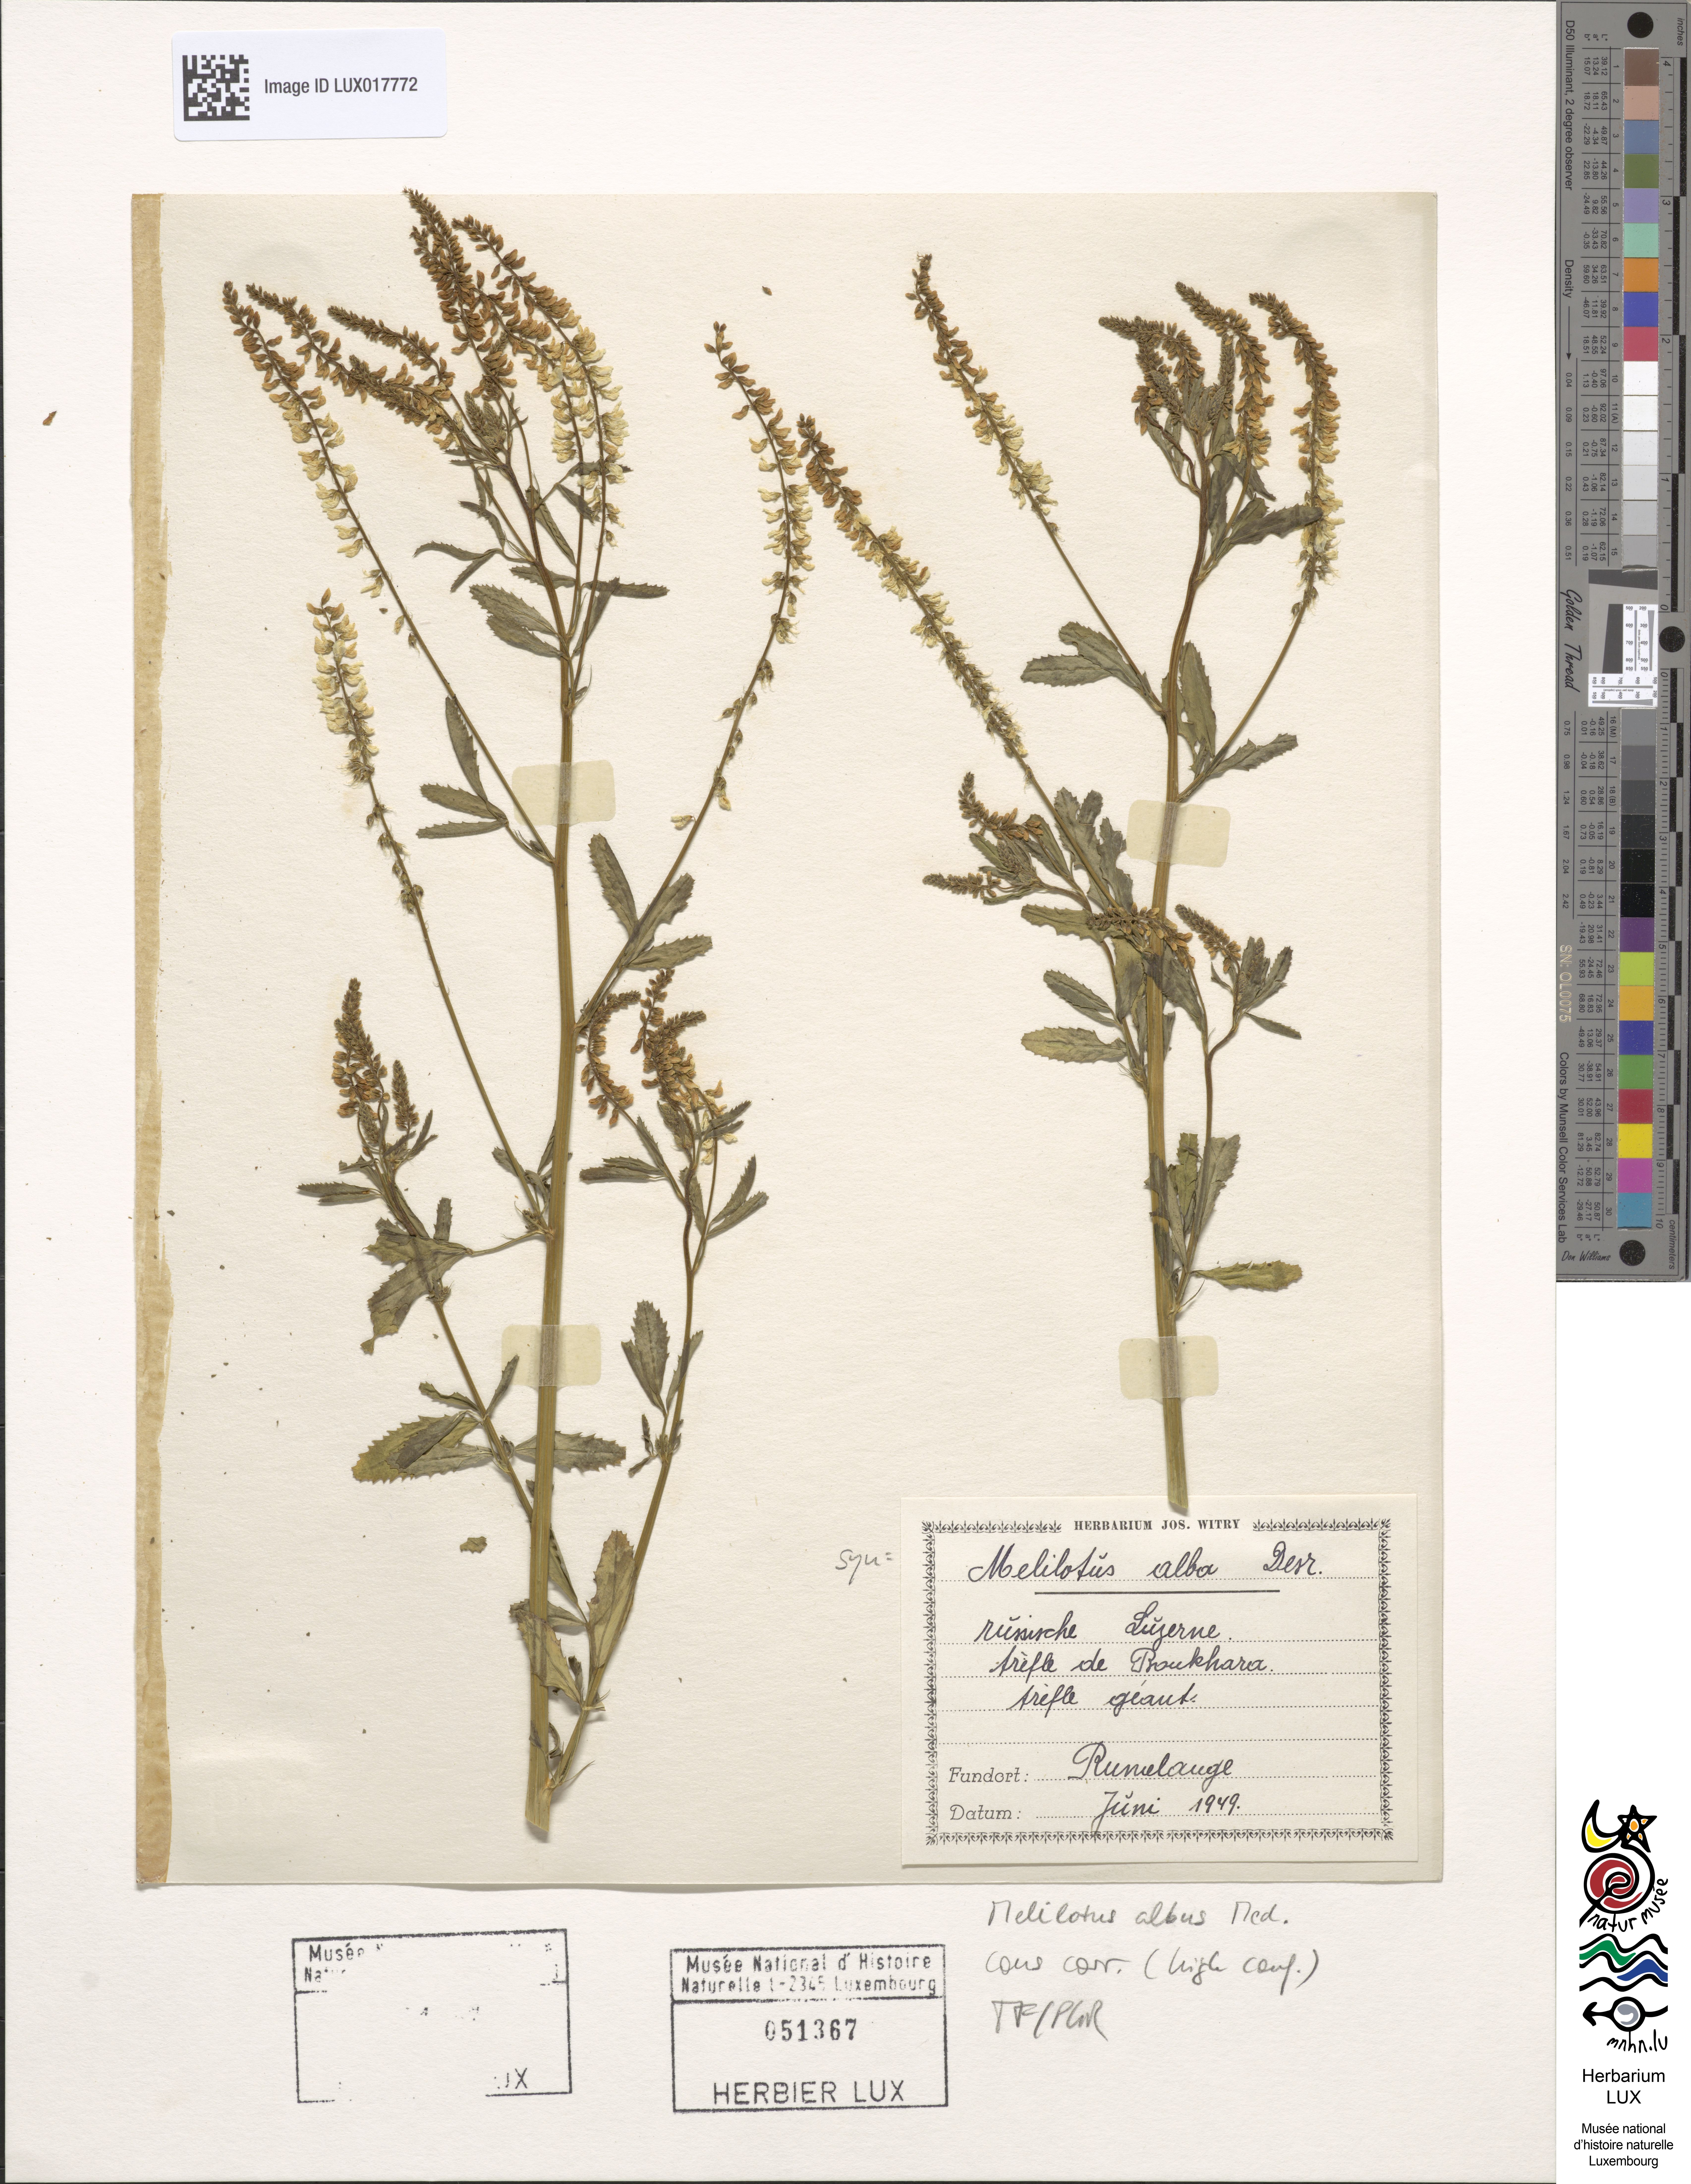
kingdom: Plantae
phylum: Tracheophyta
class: Magnoliopsida
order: Fabales
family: Fabaceae
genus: Melilotus
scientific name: Melilotus albus
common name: White melilot
